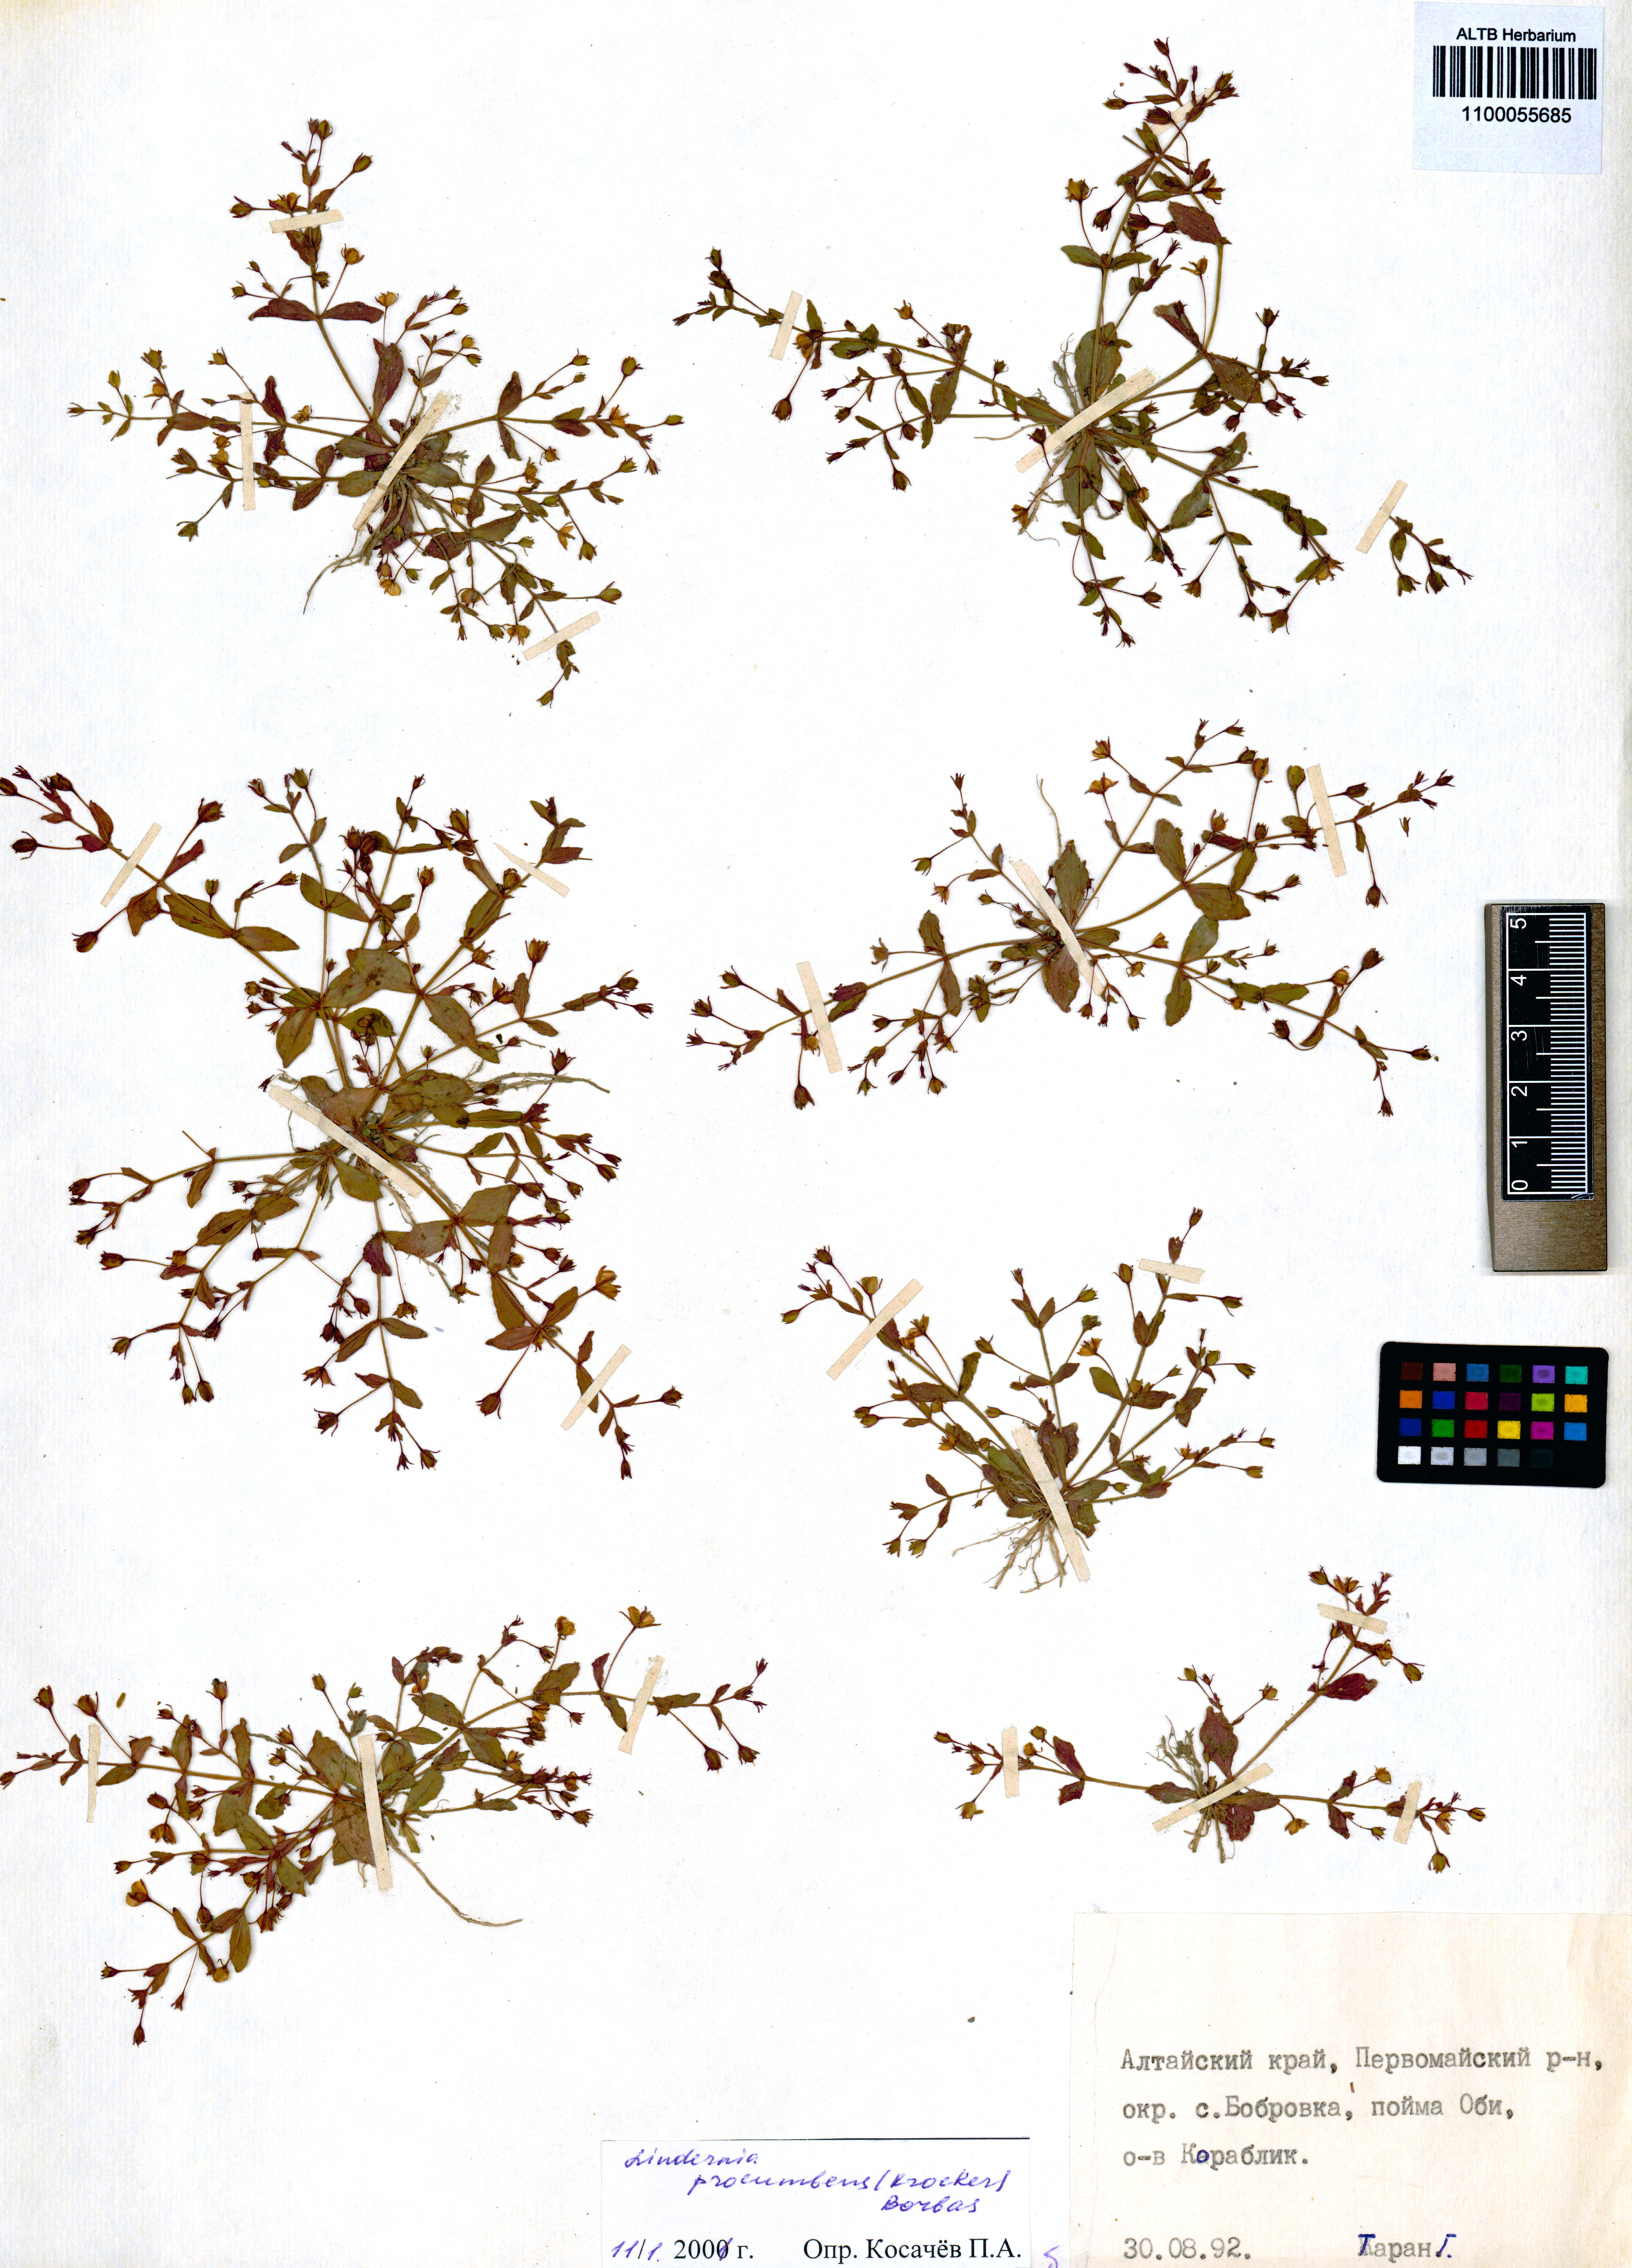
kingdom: Plantae
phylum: Tracheophyta
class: Magnoliopsida
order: Lamiales
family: Linderniaceae
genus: Lindernia
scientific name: Lindernia procumbens
